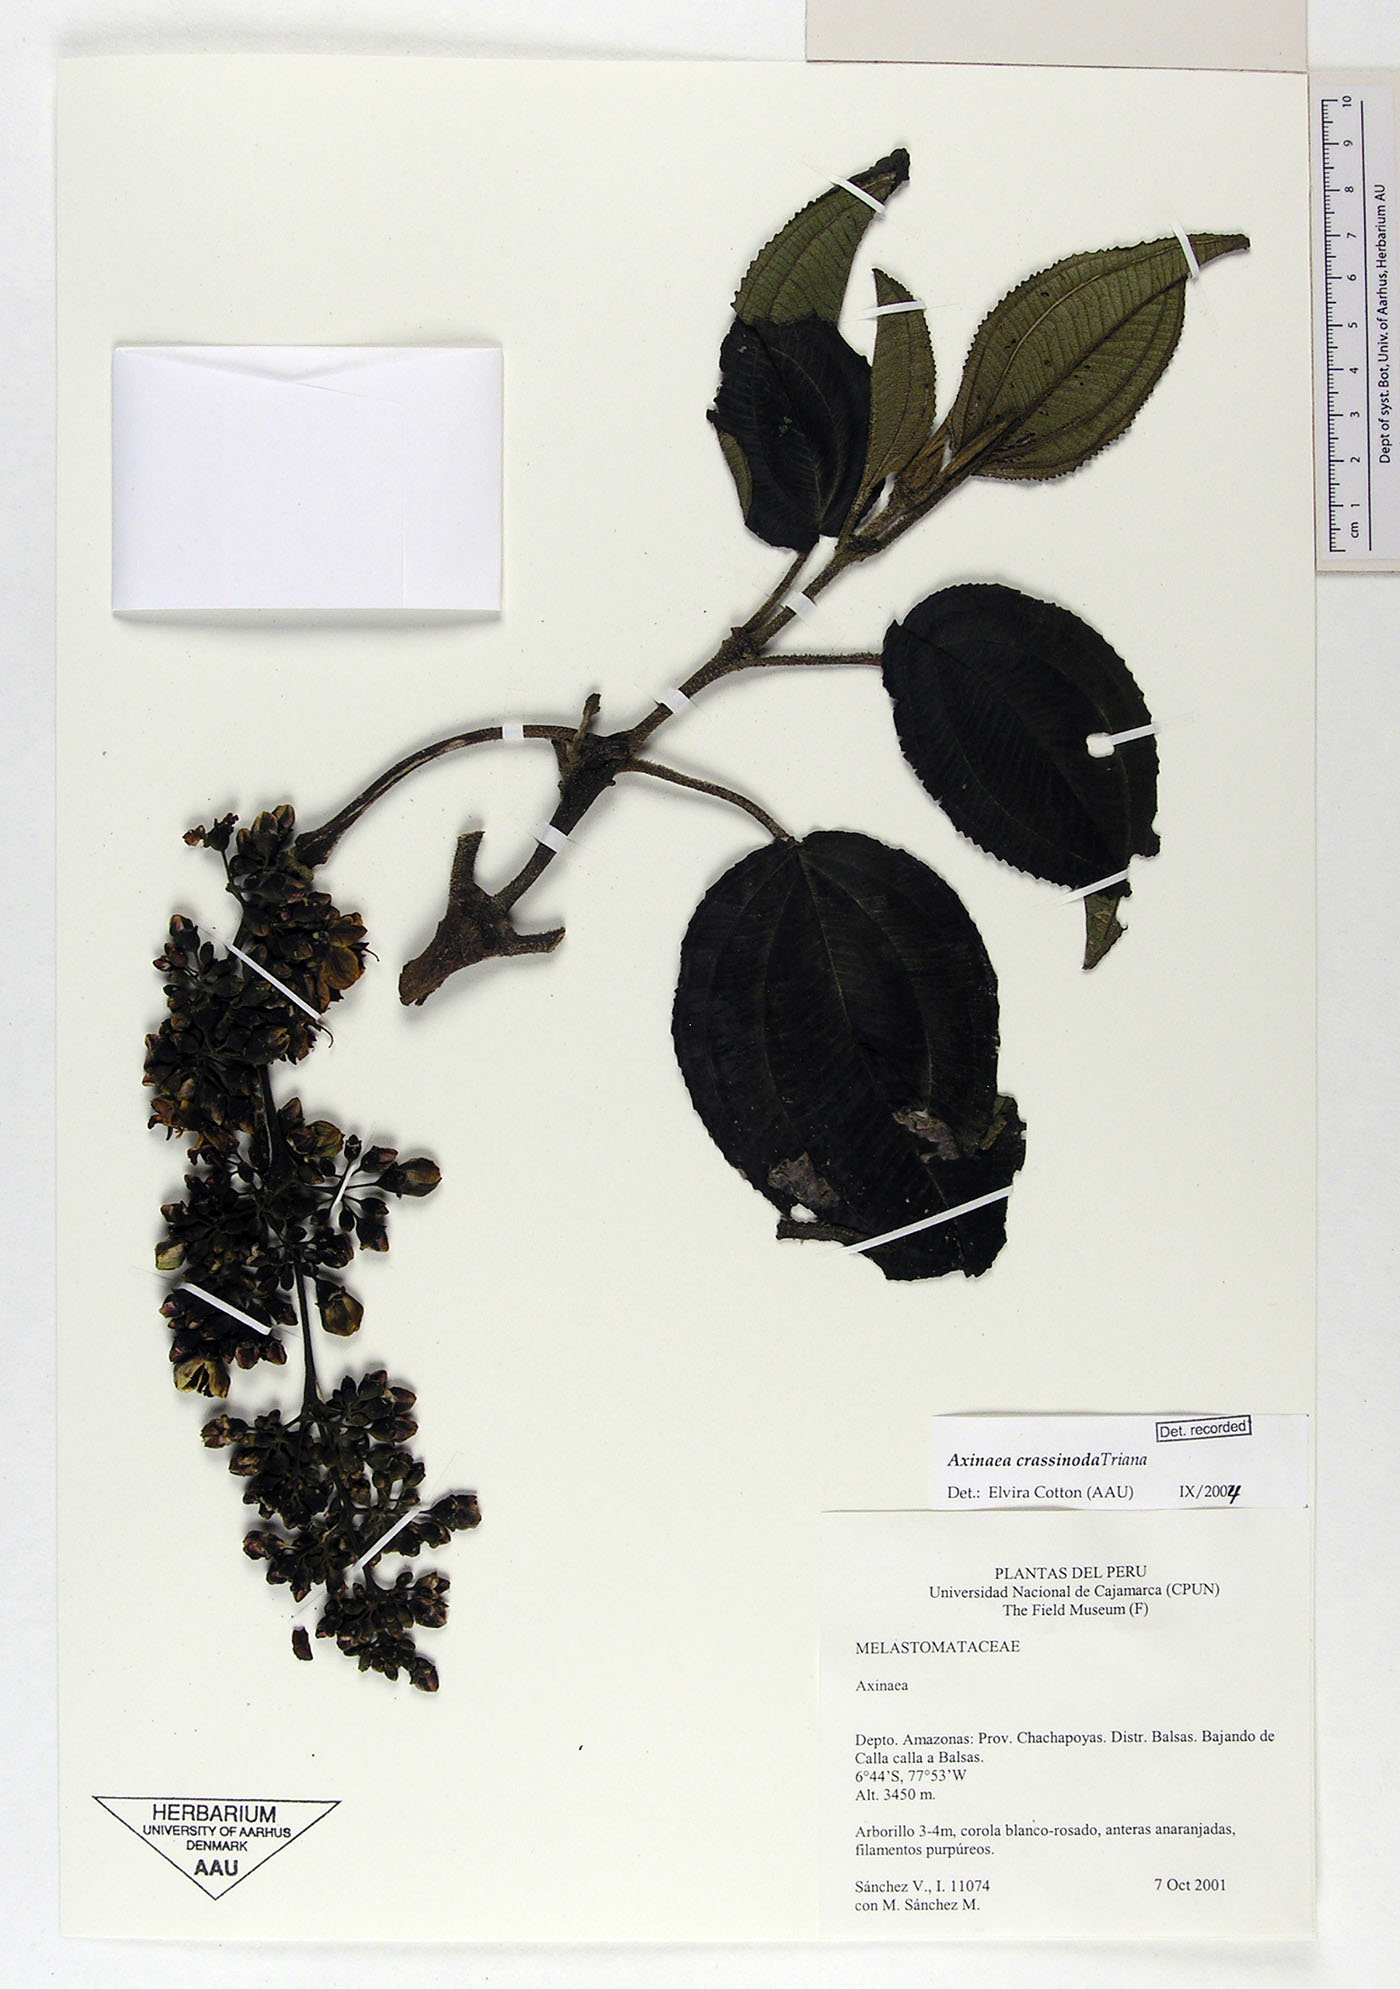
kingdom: Plantae
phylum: Tracheophyta
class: Magnoliopsida
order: Myrtales
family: Melastomataceae
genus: Axinaea
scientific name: Axinaea crassinoda
